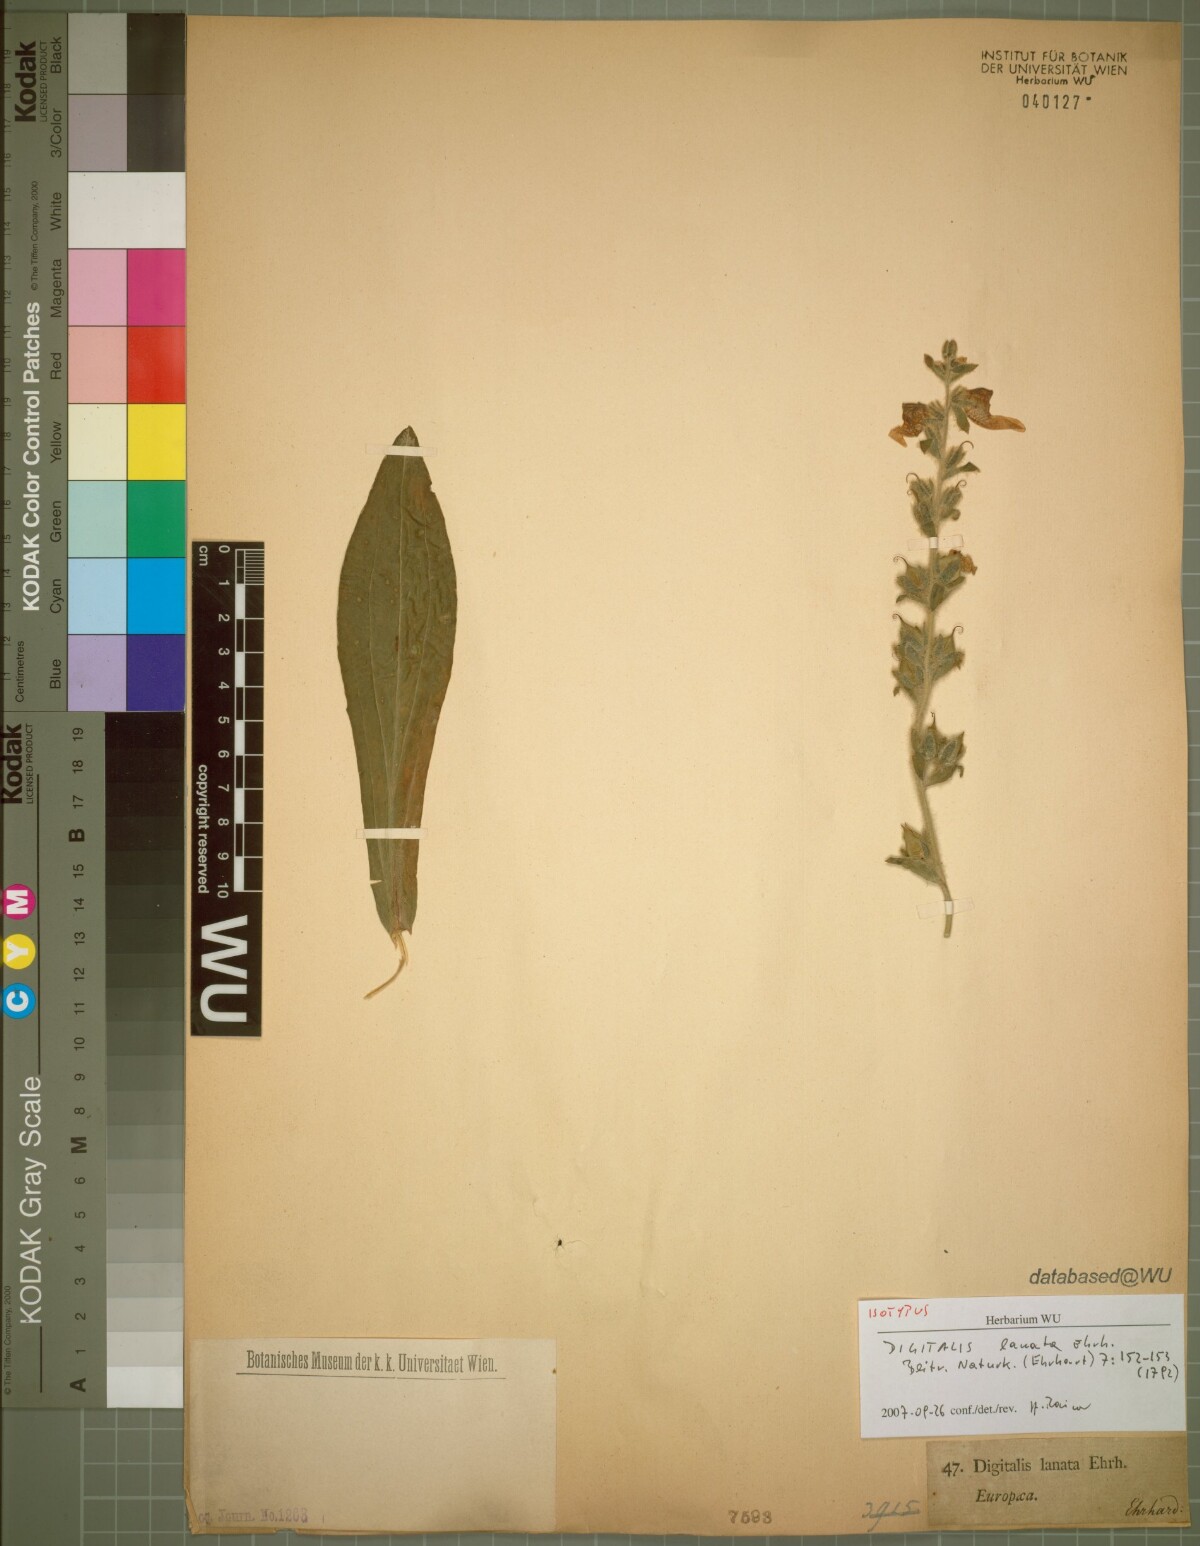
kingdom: Plantae
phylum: Tracheophyta
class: Magnoliopsida
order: Lamiales
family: Plantaginaceae
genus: Digitalis
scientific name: Digitalis lanata
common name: Grecian foxglove
